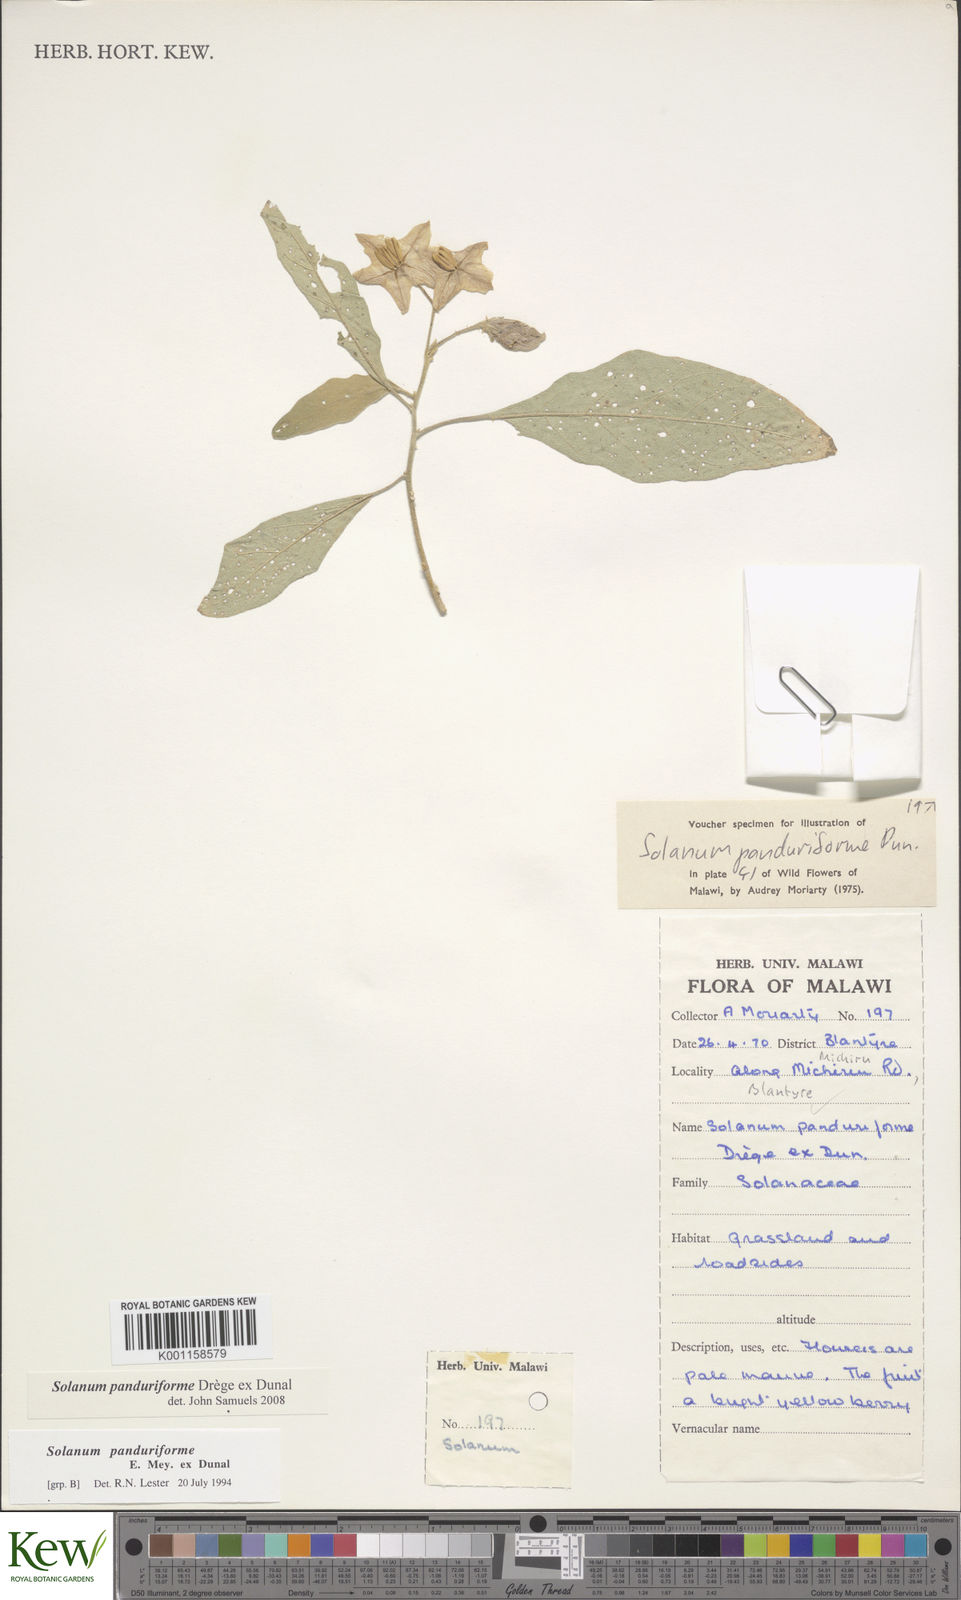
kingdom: Plantae
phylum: Tracheophyta
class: Magnoliopsida
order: Solanales
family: Solanaceae
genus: Solanum
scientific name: Solanum campylacanthum
